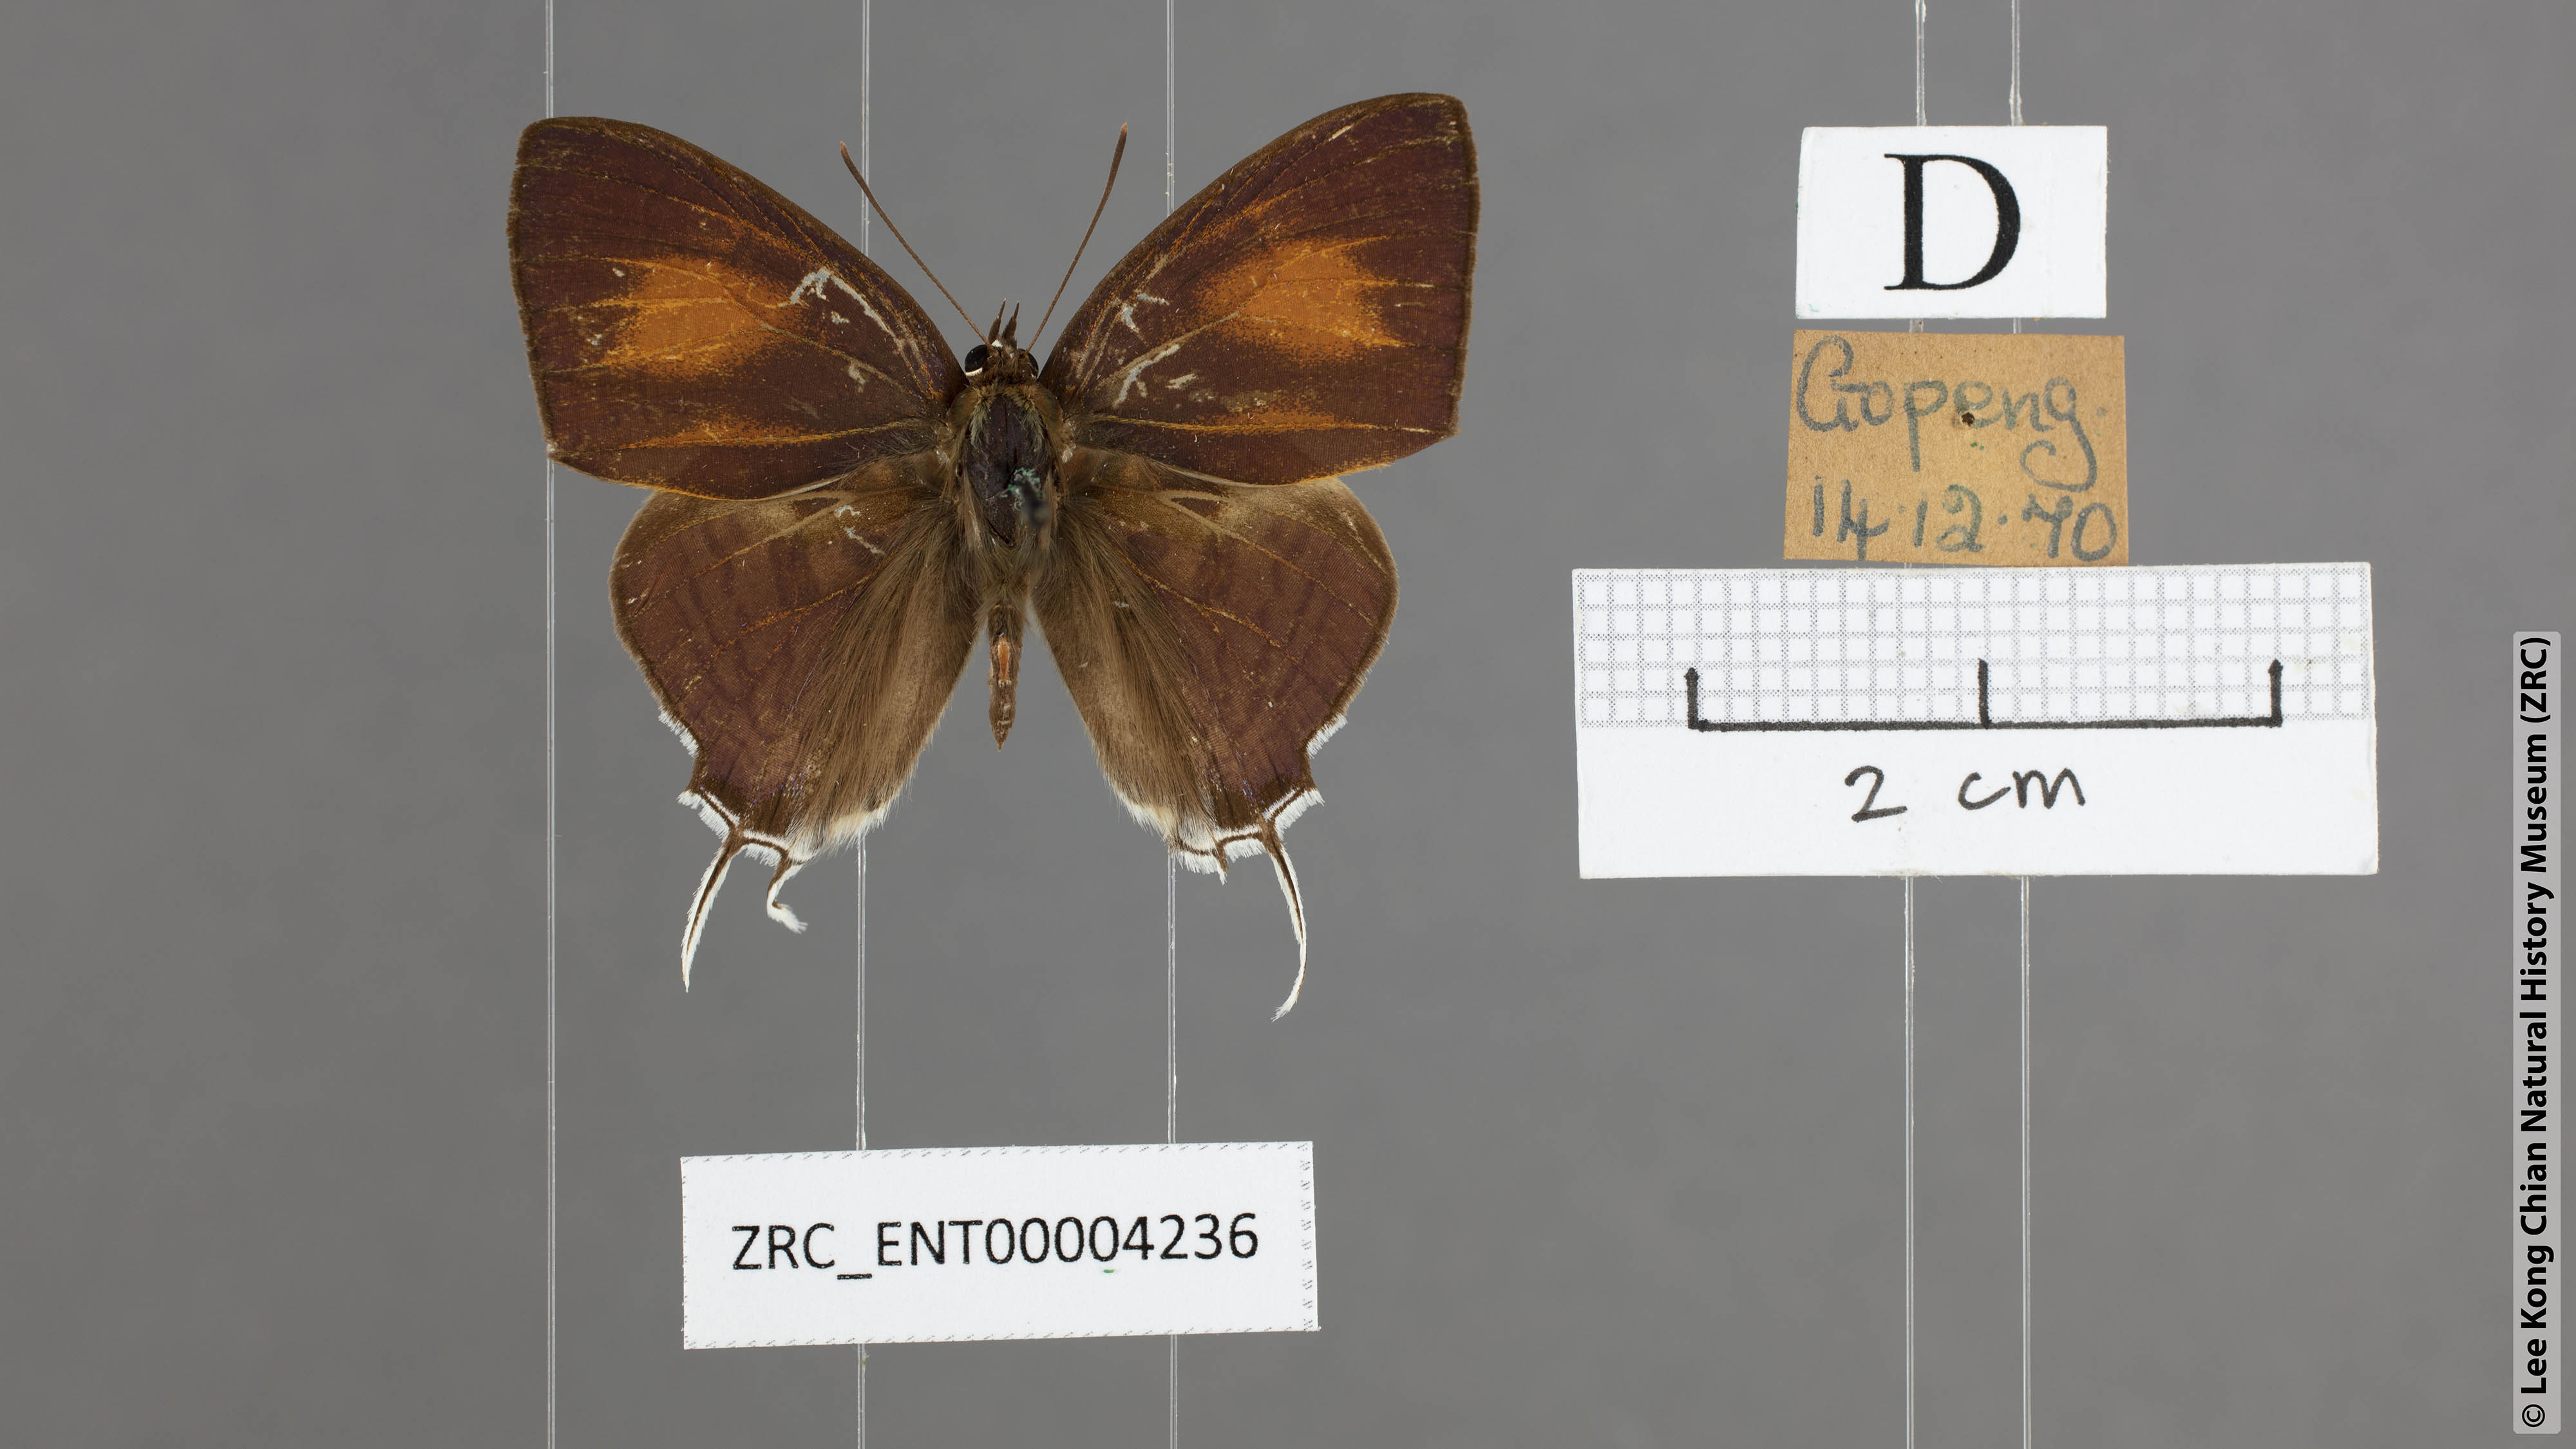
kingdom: Animalia
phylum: Arthropoda
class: Insecta
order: Lepidoptera
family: Lycaenidae
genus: Drupadia
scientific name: Drupadia theda
